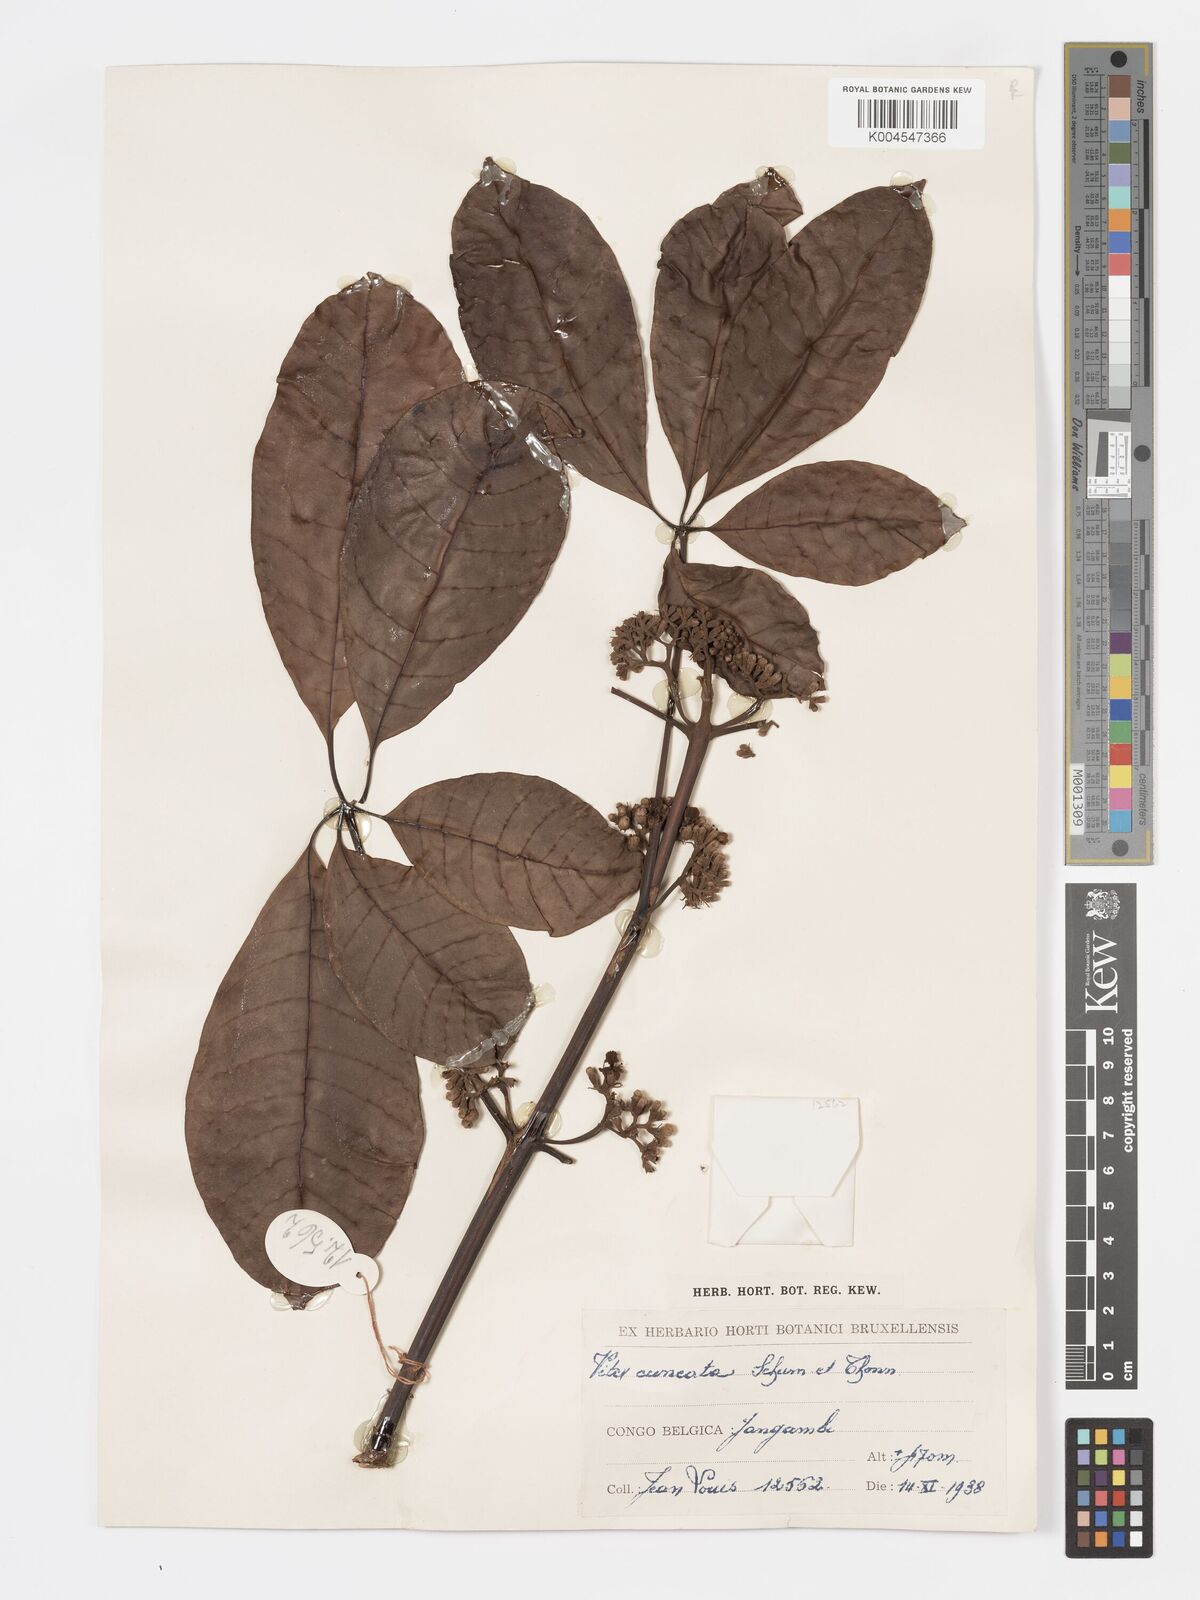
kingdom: Plantae
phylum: Tracheophyta
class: Magnoliopsida
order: Lamiales
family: Lamiaceae
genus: Vitex
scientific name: Vitex doniana
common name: Black plum
